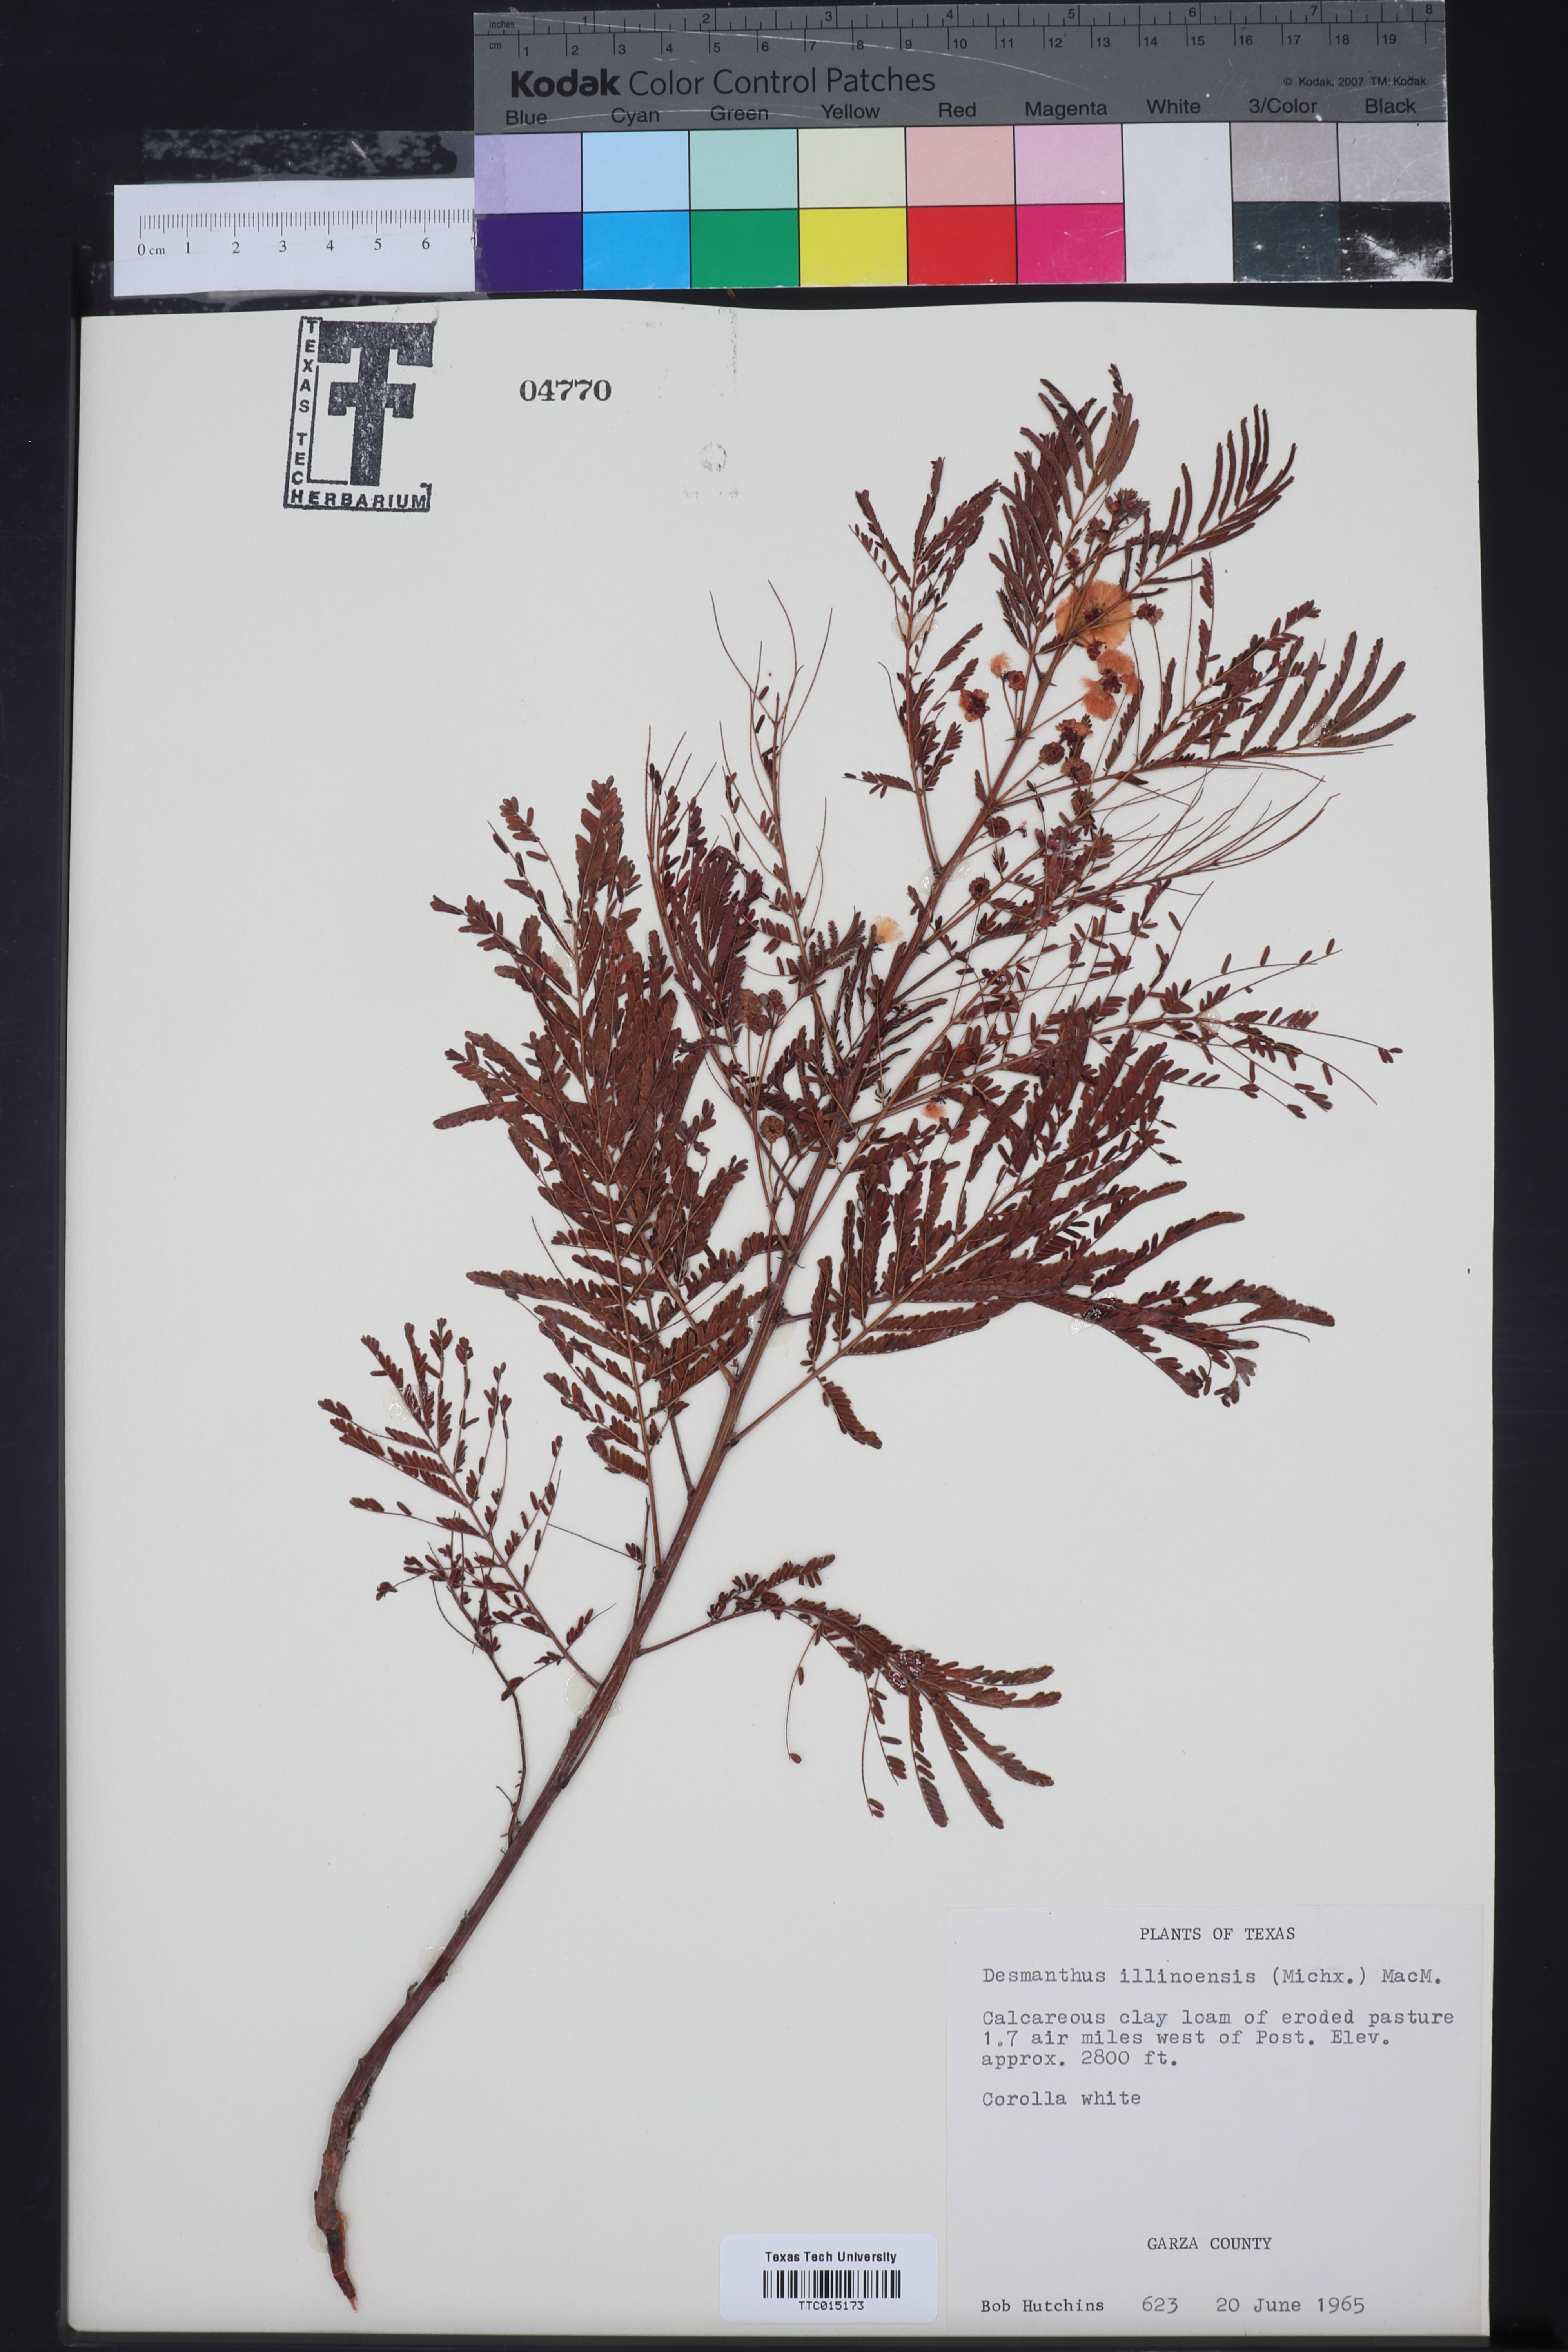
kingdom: Plantae
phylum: Tracheophyta
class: Magnoliopsida
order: Fabales
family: Fabaceae
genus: Desmanthus
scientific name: Desmanthus illinoensis
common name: Illinois bundle-flower
